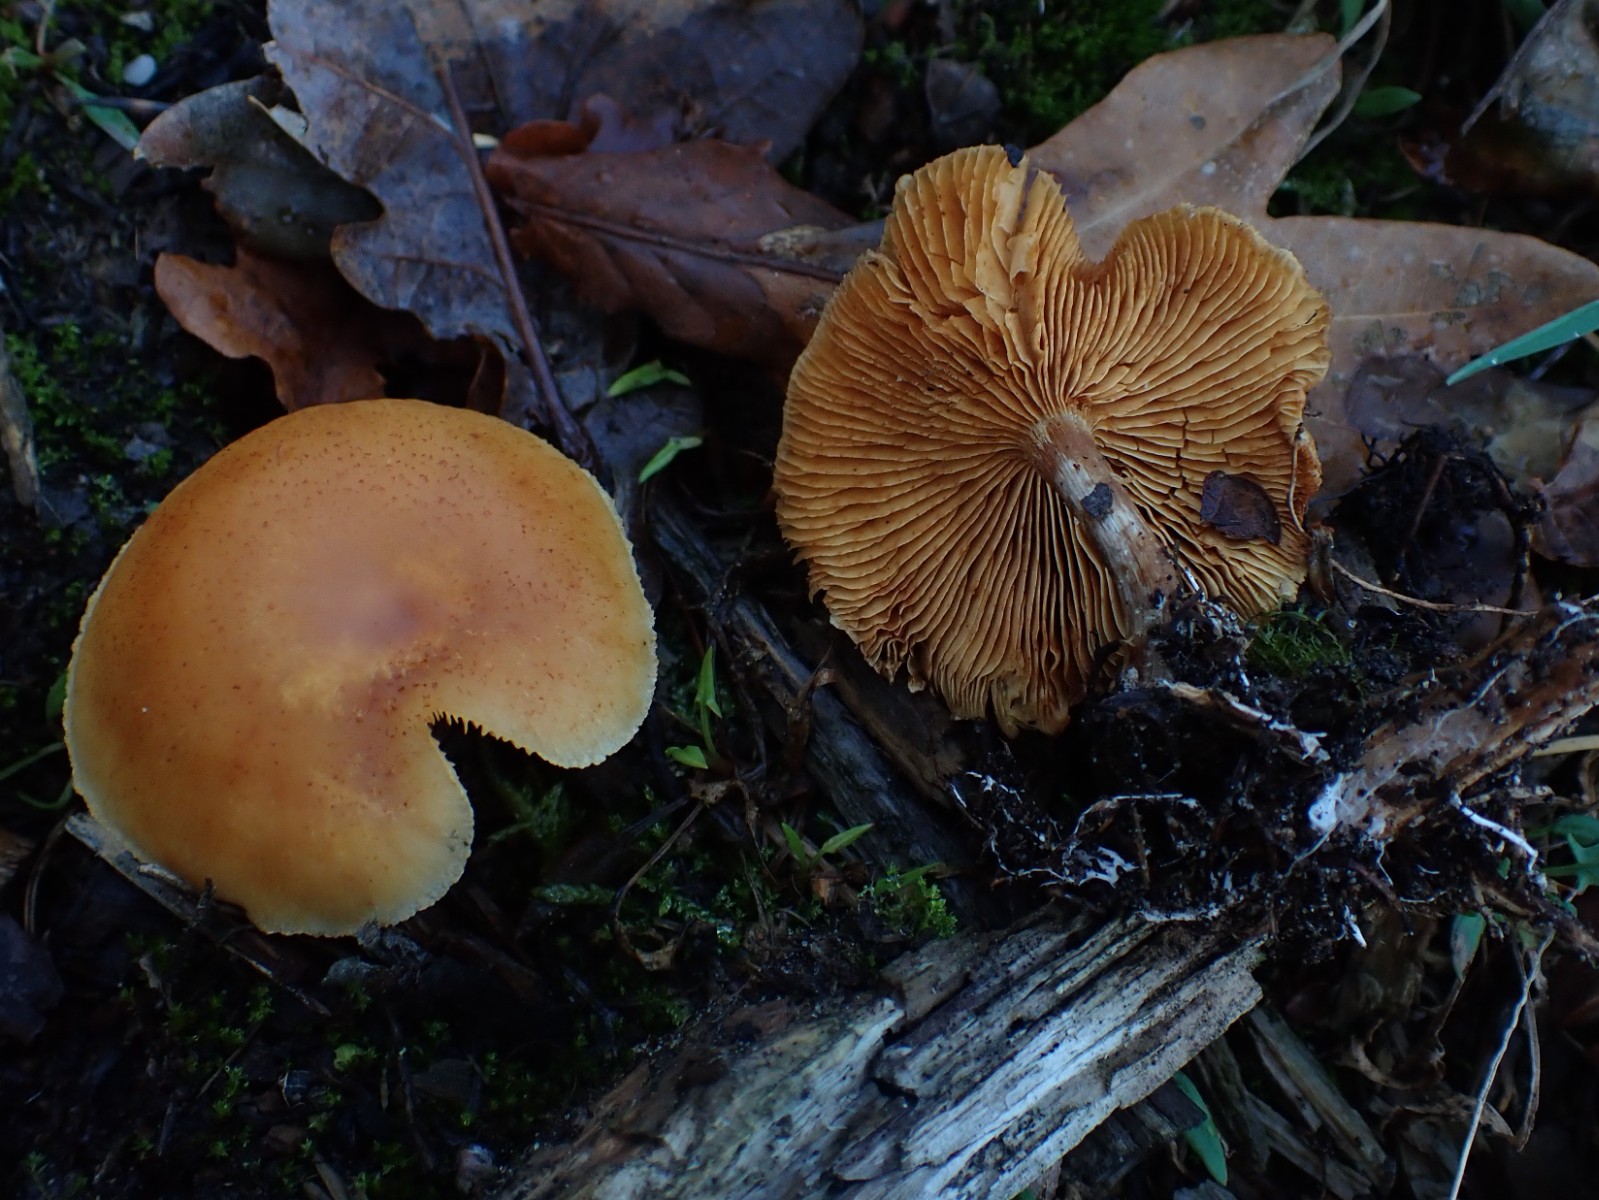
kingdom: Fungi
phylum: Basidiomycota
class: Agaricomycetes
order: Agaricales
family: Hymenogastraceae
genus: Gymnopilus
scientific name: Gymnopilus penetrans
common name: plettet flammehat
